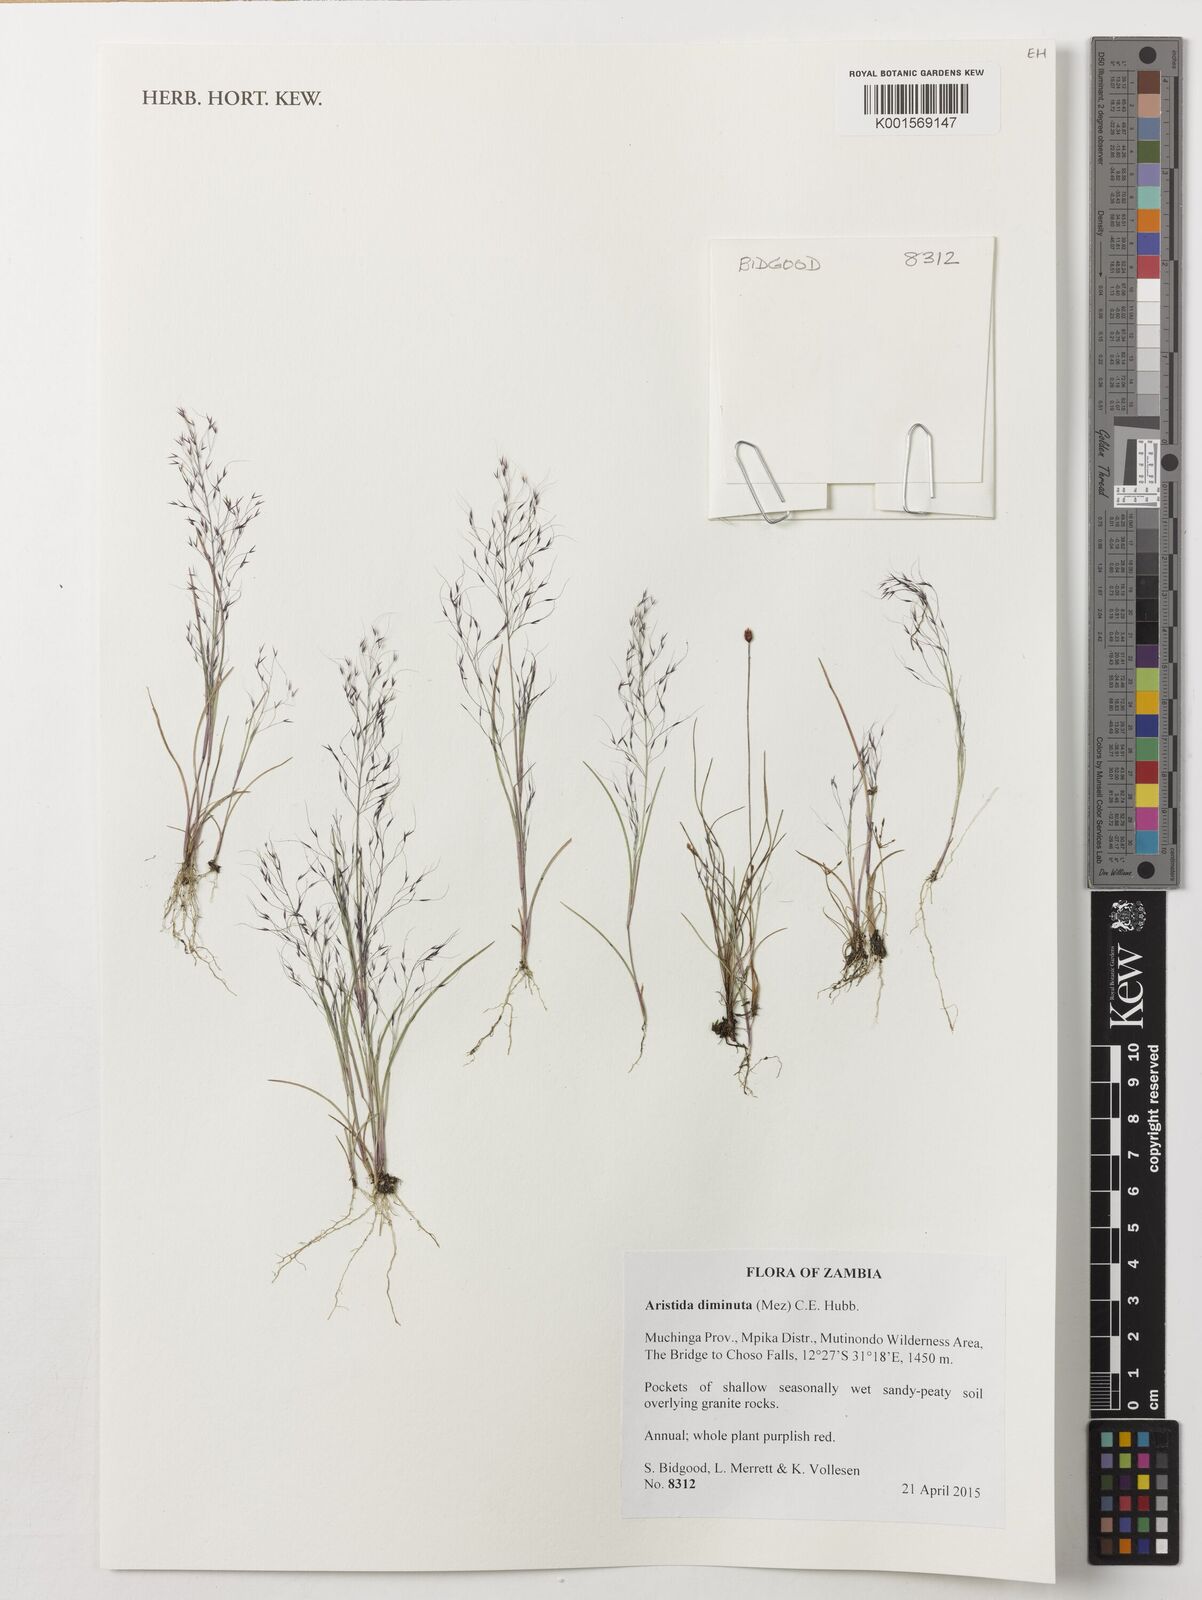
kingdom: Plantae
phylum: Tracheophyta
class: Liliopsida
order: Poales
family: Poaceae
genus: Aristida
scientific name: Aristida diminuta
